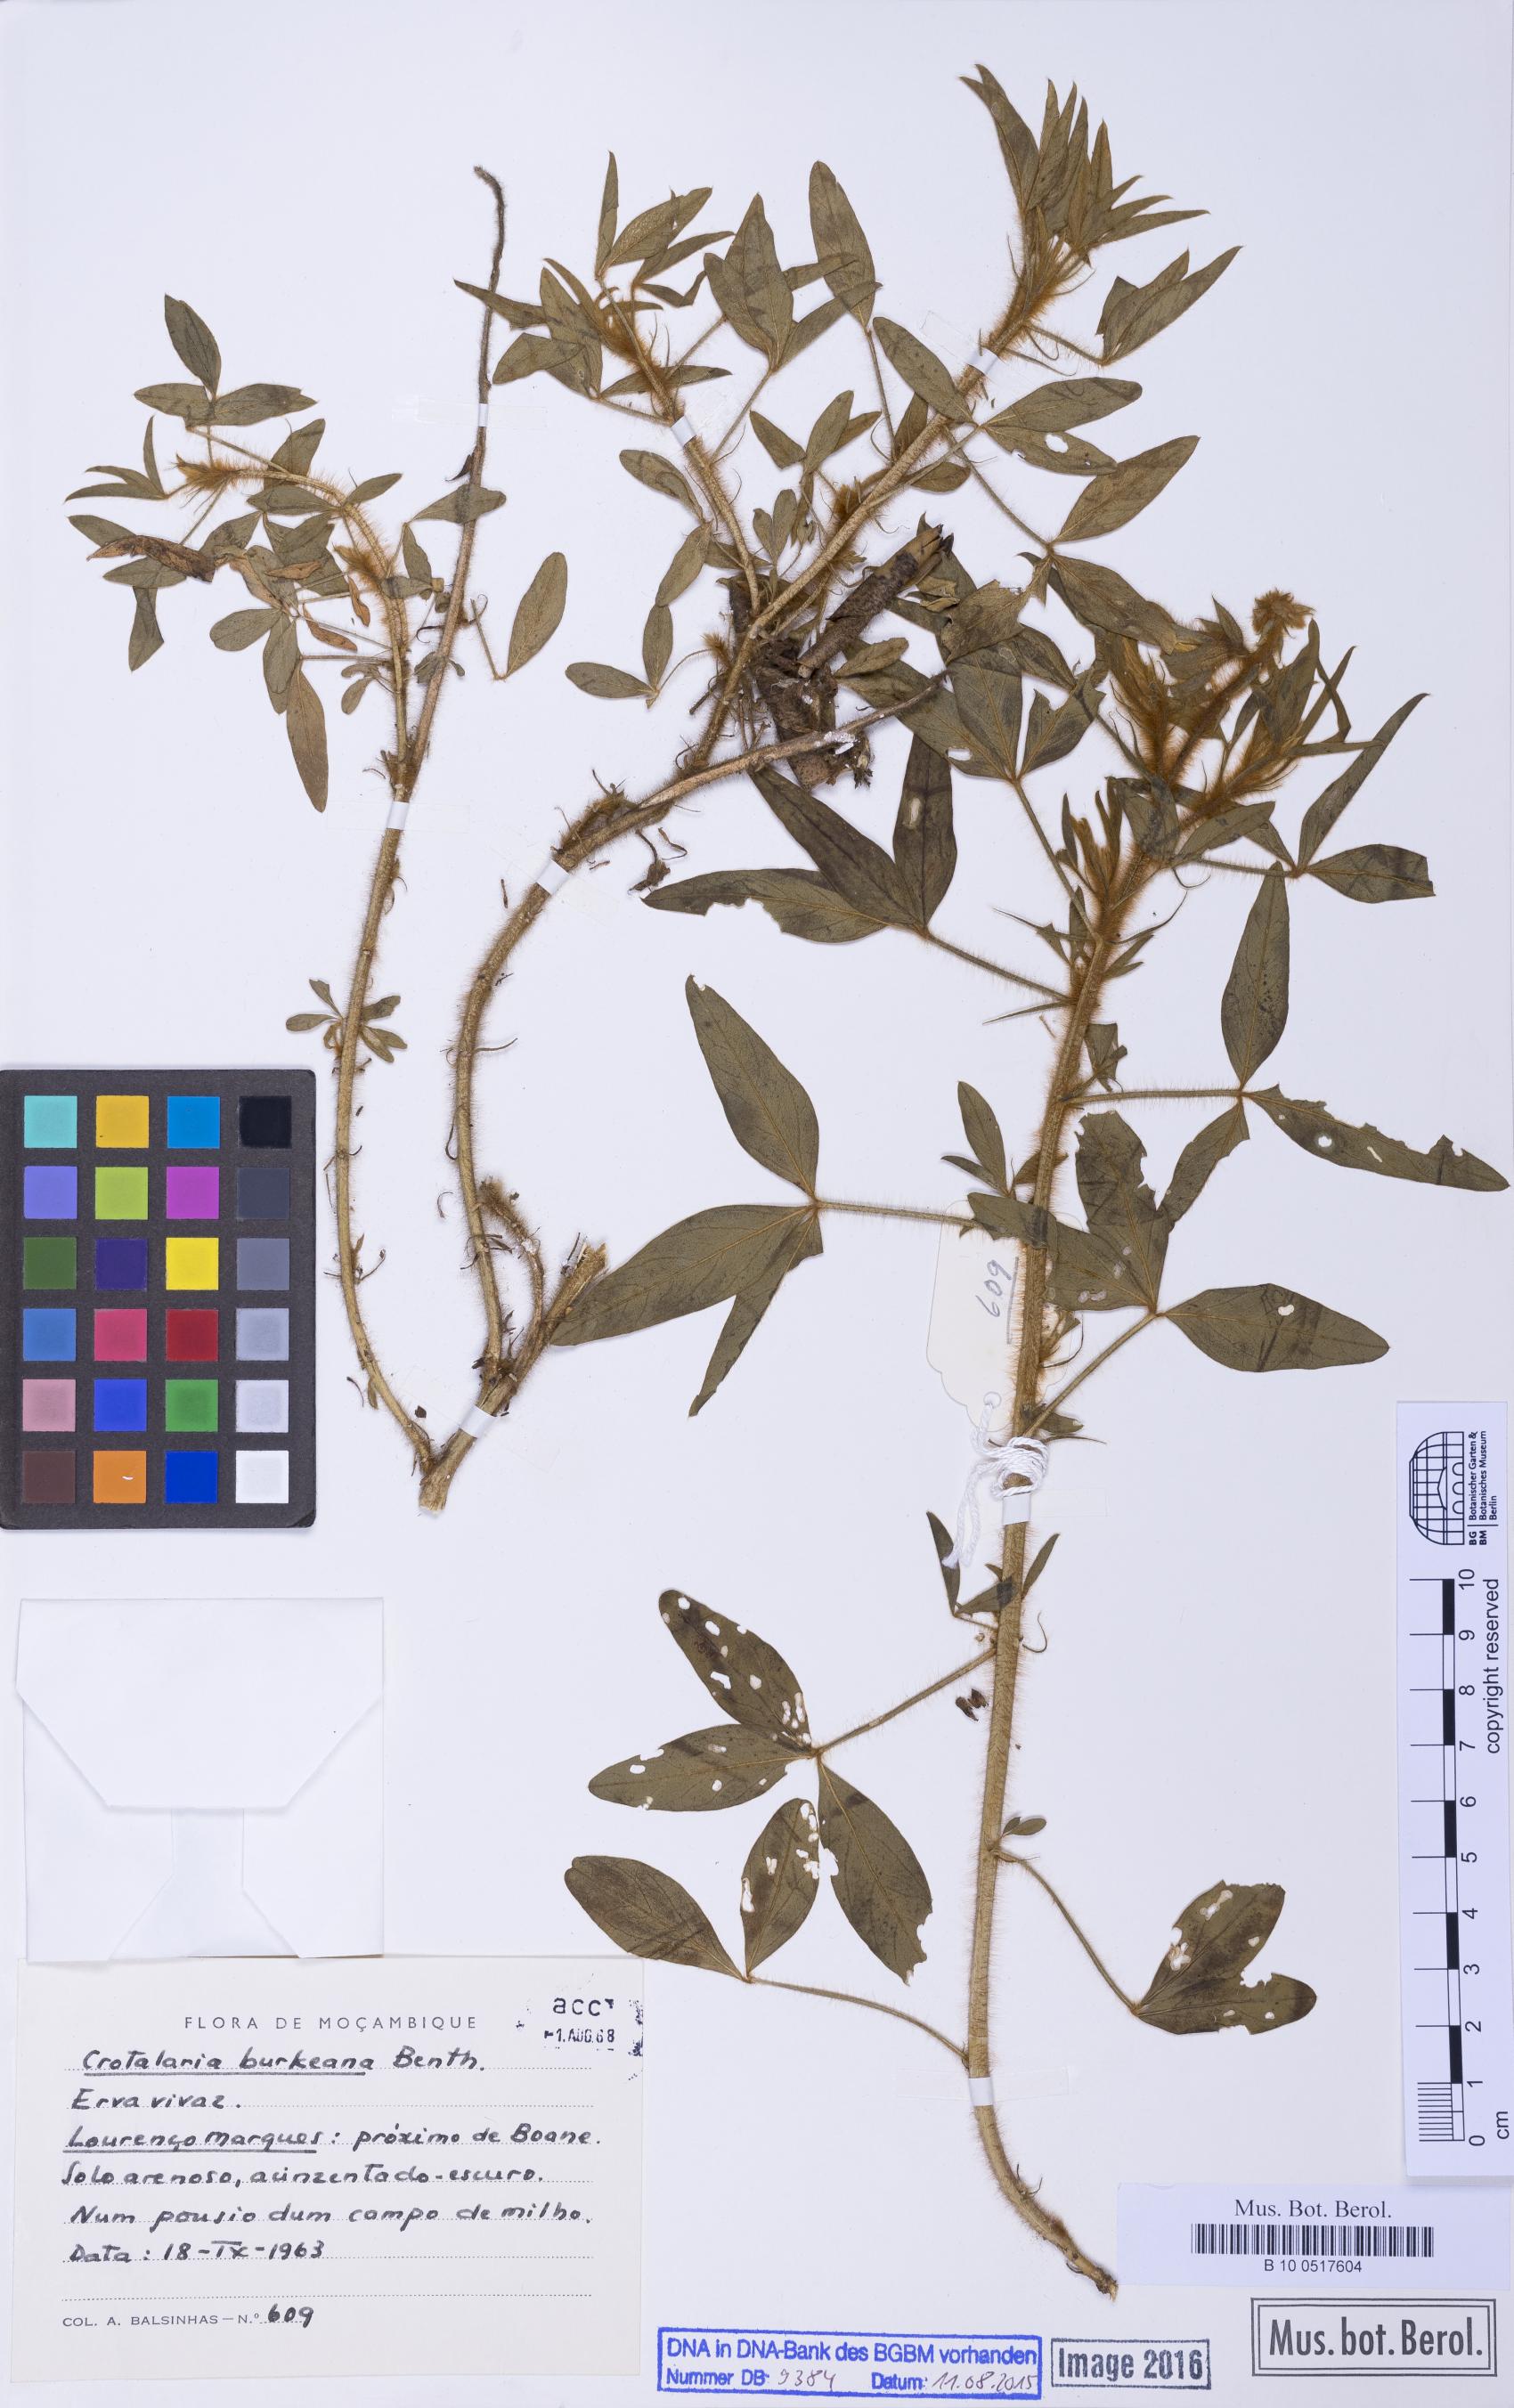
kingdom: Plantae
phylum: Tracheophyta
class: Magnoliopsida
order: Fabales
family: Fabaceae
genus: Crotalaria
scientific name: Crotalaria burkeana
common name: Rattlebush
